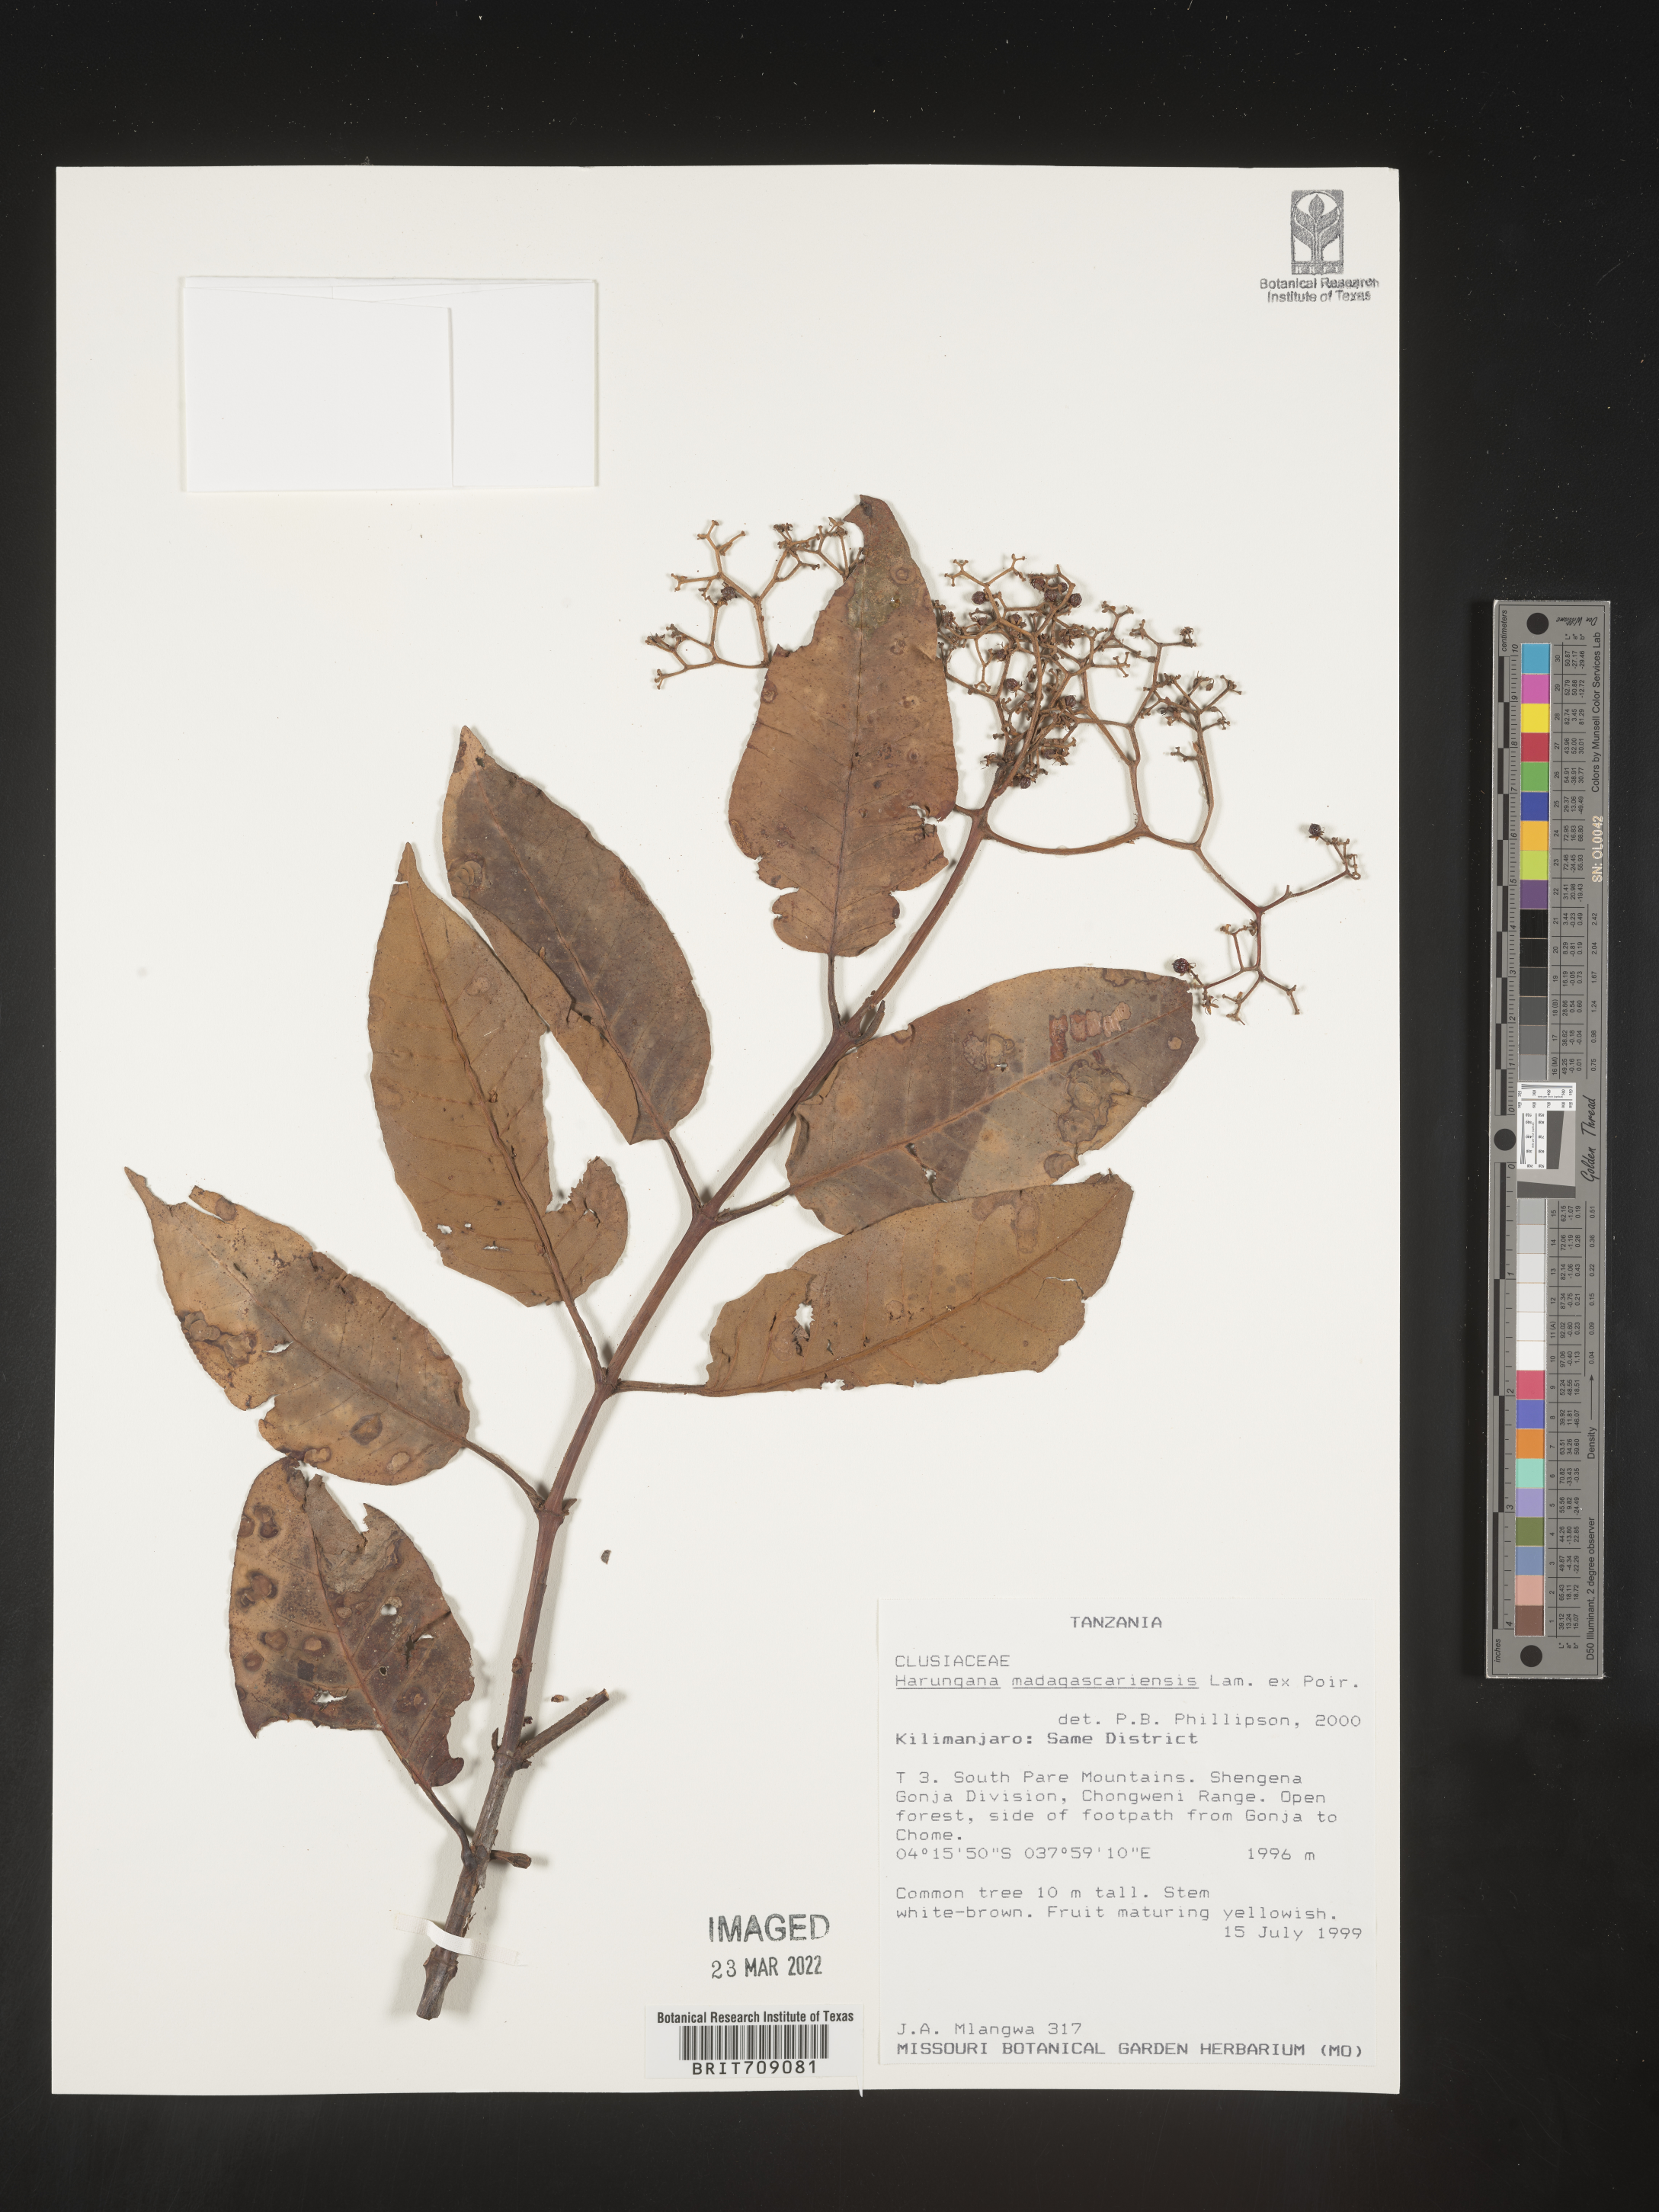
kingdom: Plantae
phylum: Tracheophyta
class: Magnoliopsida
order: Malpighiales
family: Hypericaceae
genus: Harungana
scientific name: Harungana
